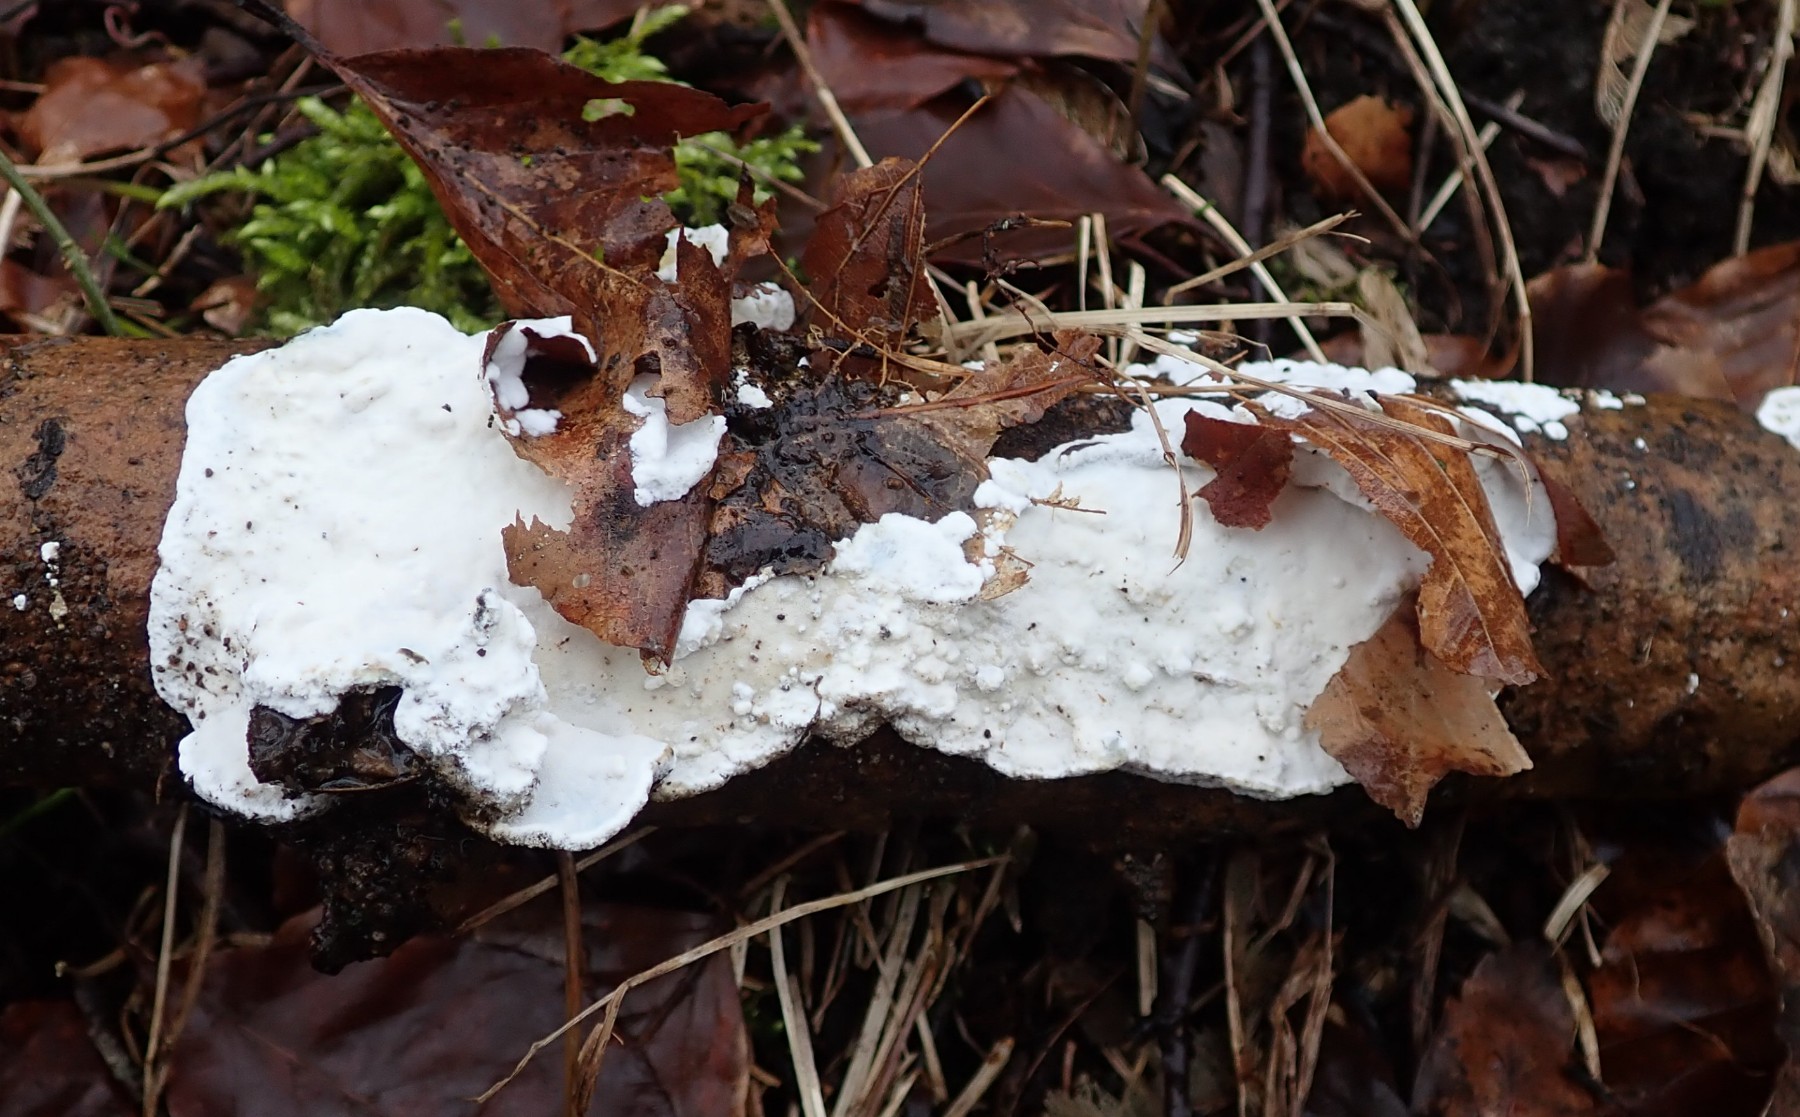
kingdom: Fungi
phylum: Basidiomycota
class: Agaricomycetes
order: Polyporales
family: Incrustoporiaceae
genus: Skeletocutis
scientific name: Skeletocutis nemoralis
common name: stor krystalporesvamp
